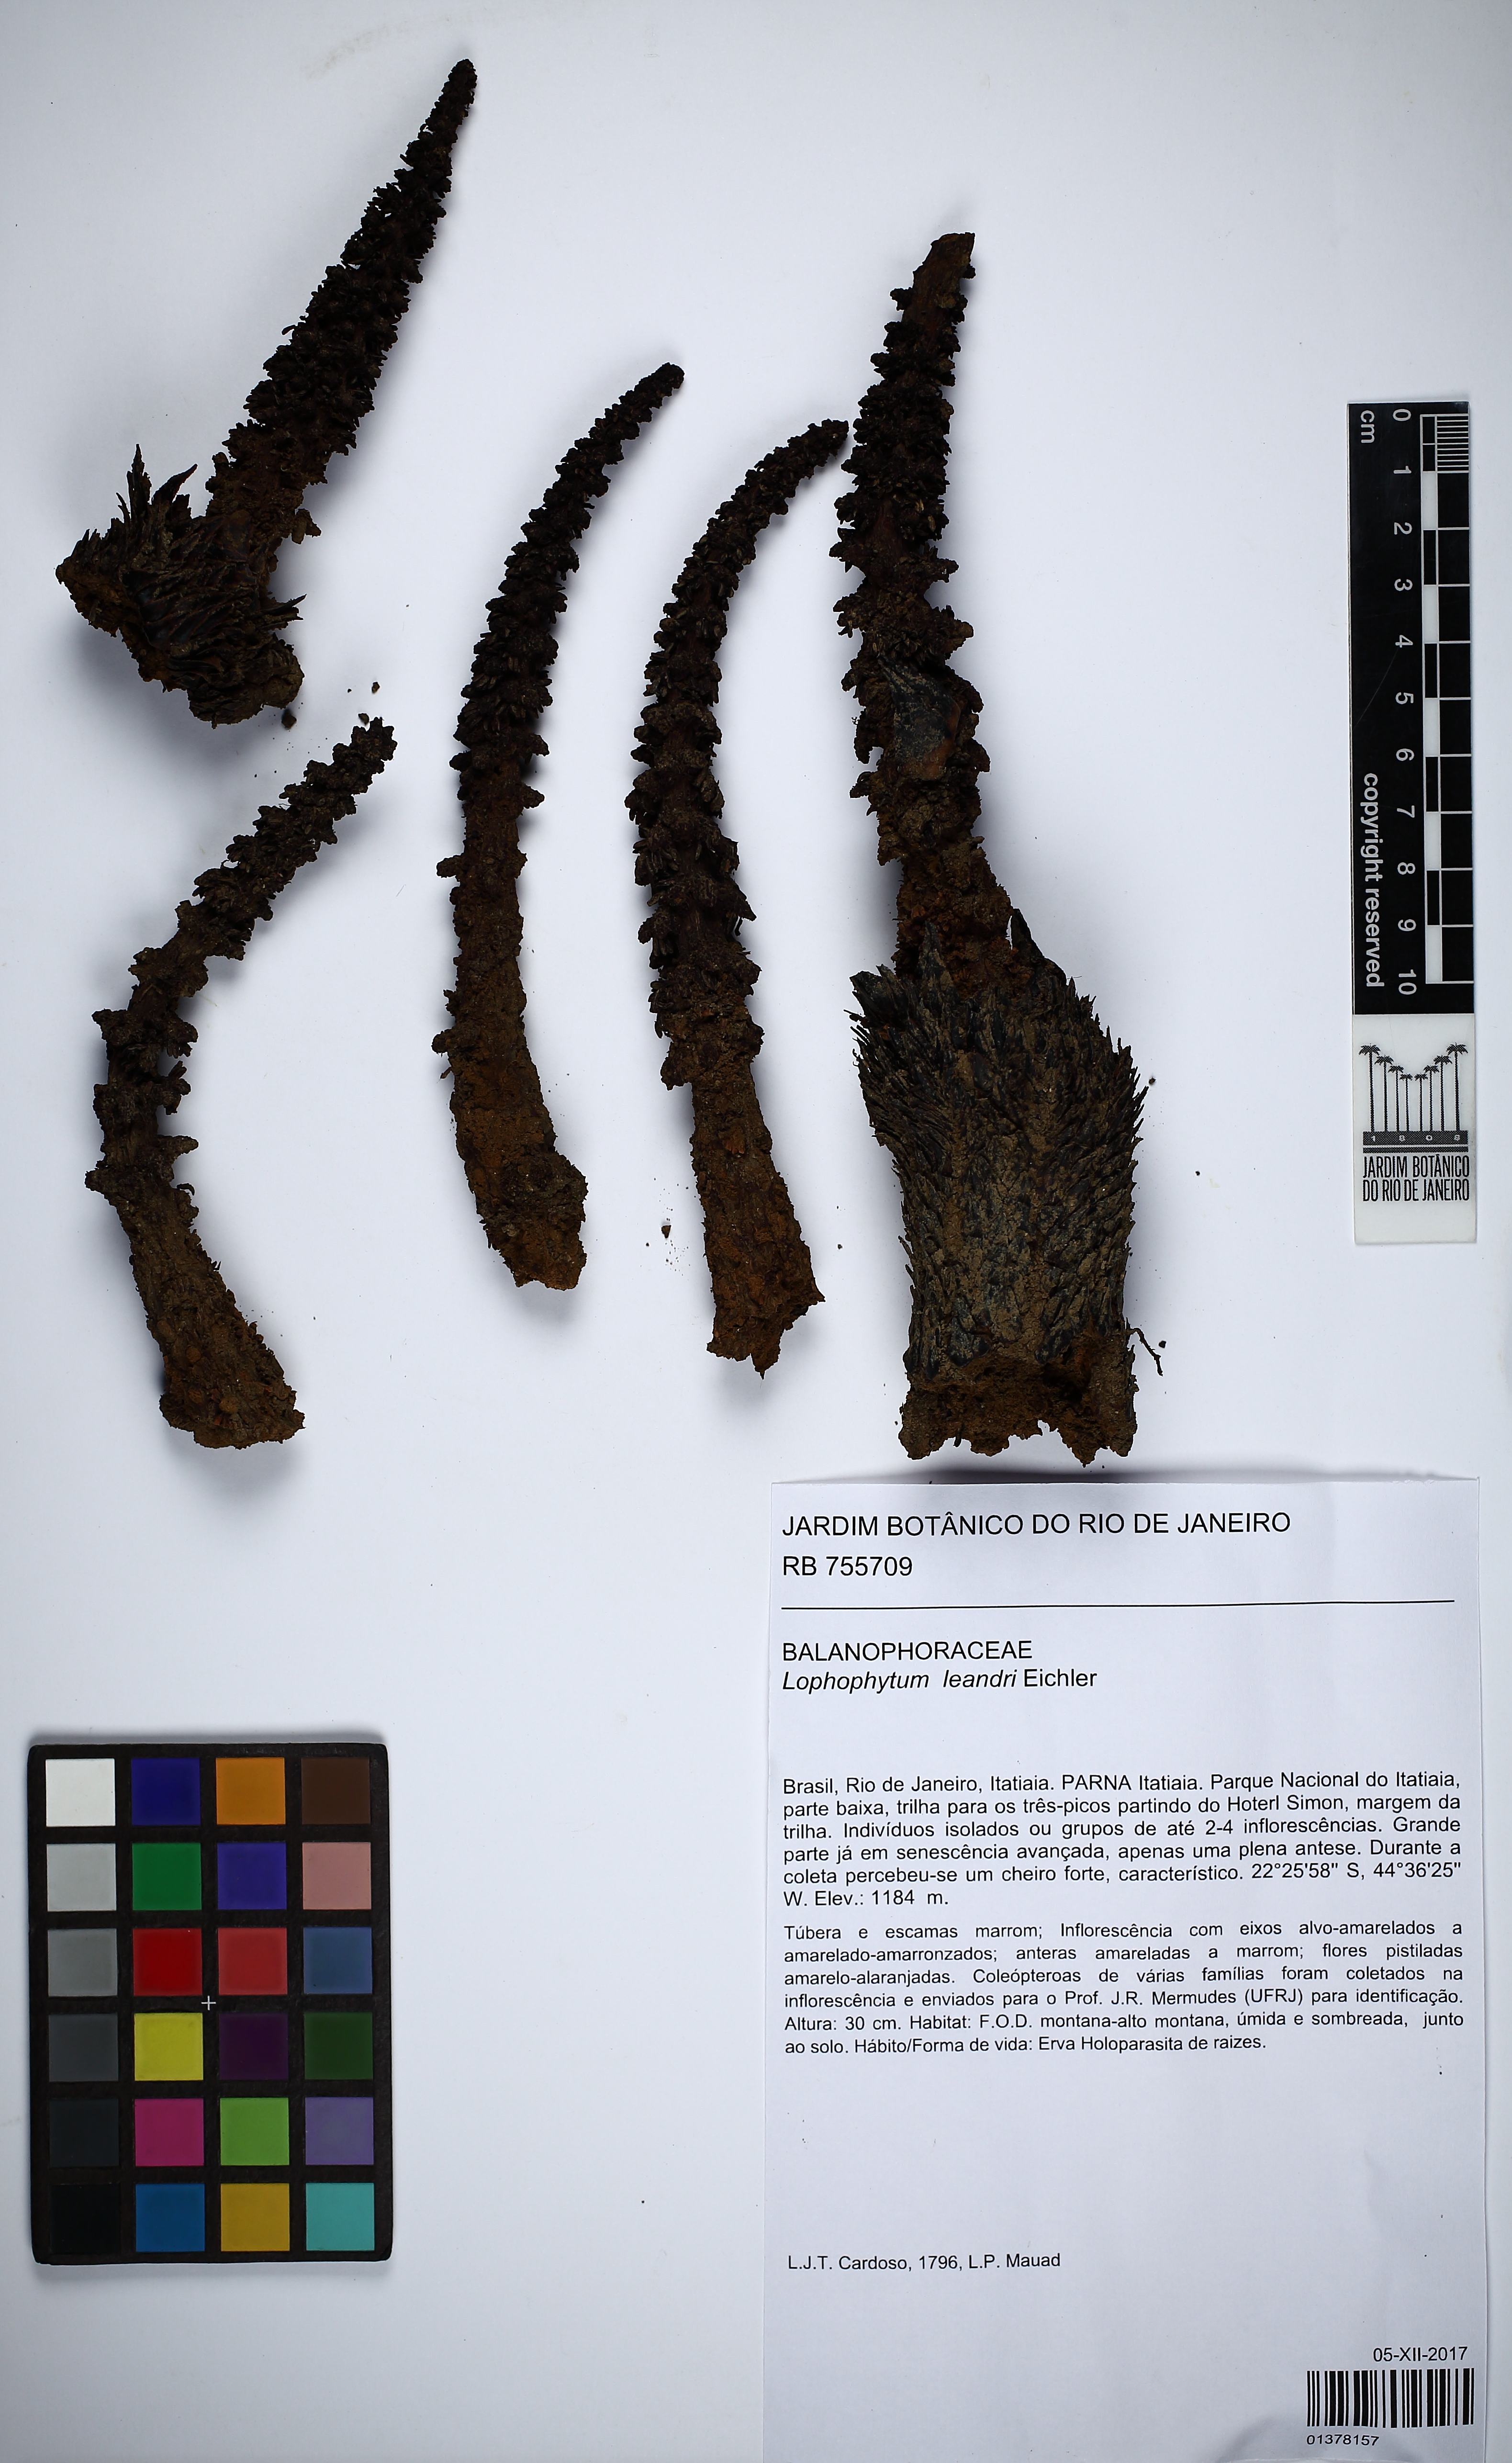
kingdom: Plantae
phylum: Tracheophyta
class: Magnoliopsida
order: Santalales
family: Balanophoraceae
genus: Lophophytum
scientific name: Lophophytum pyramidale
